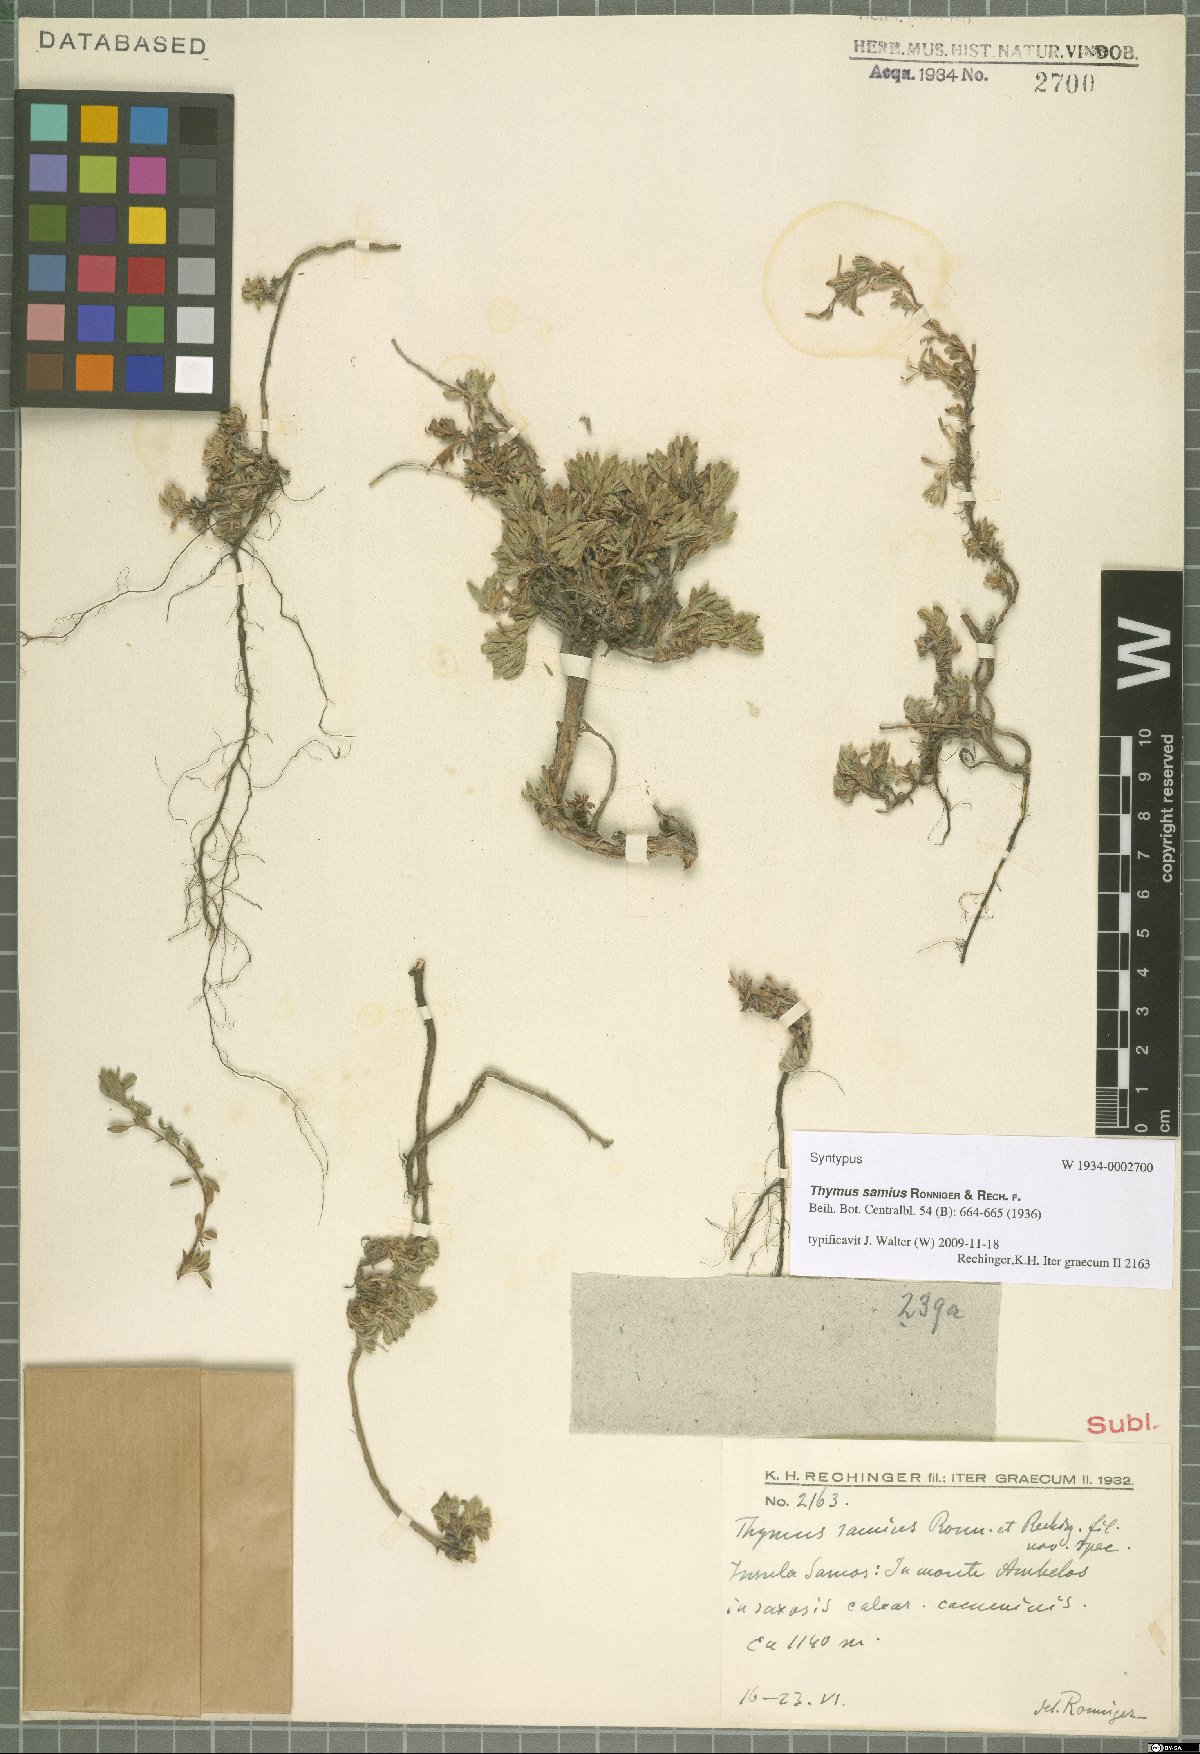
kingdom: Plantae
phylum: Tracheophyta
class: Magnoliopsida
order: Lamiales
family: Lamiaceae
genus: Thymus
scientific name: Thymus samius
